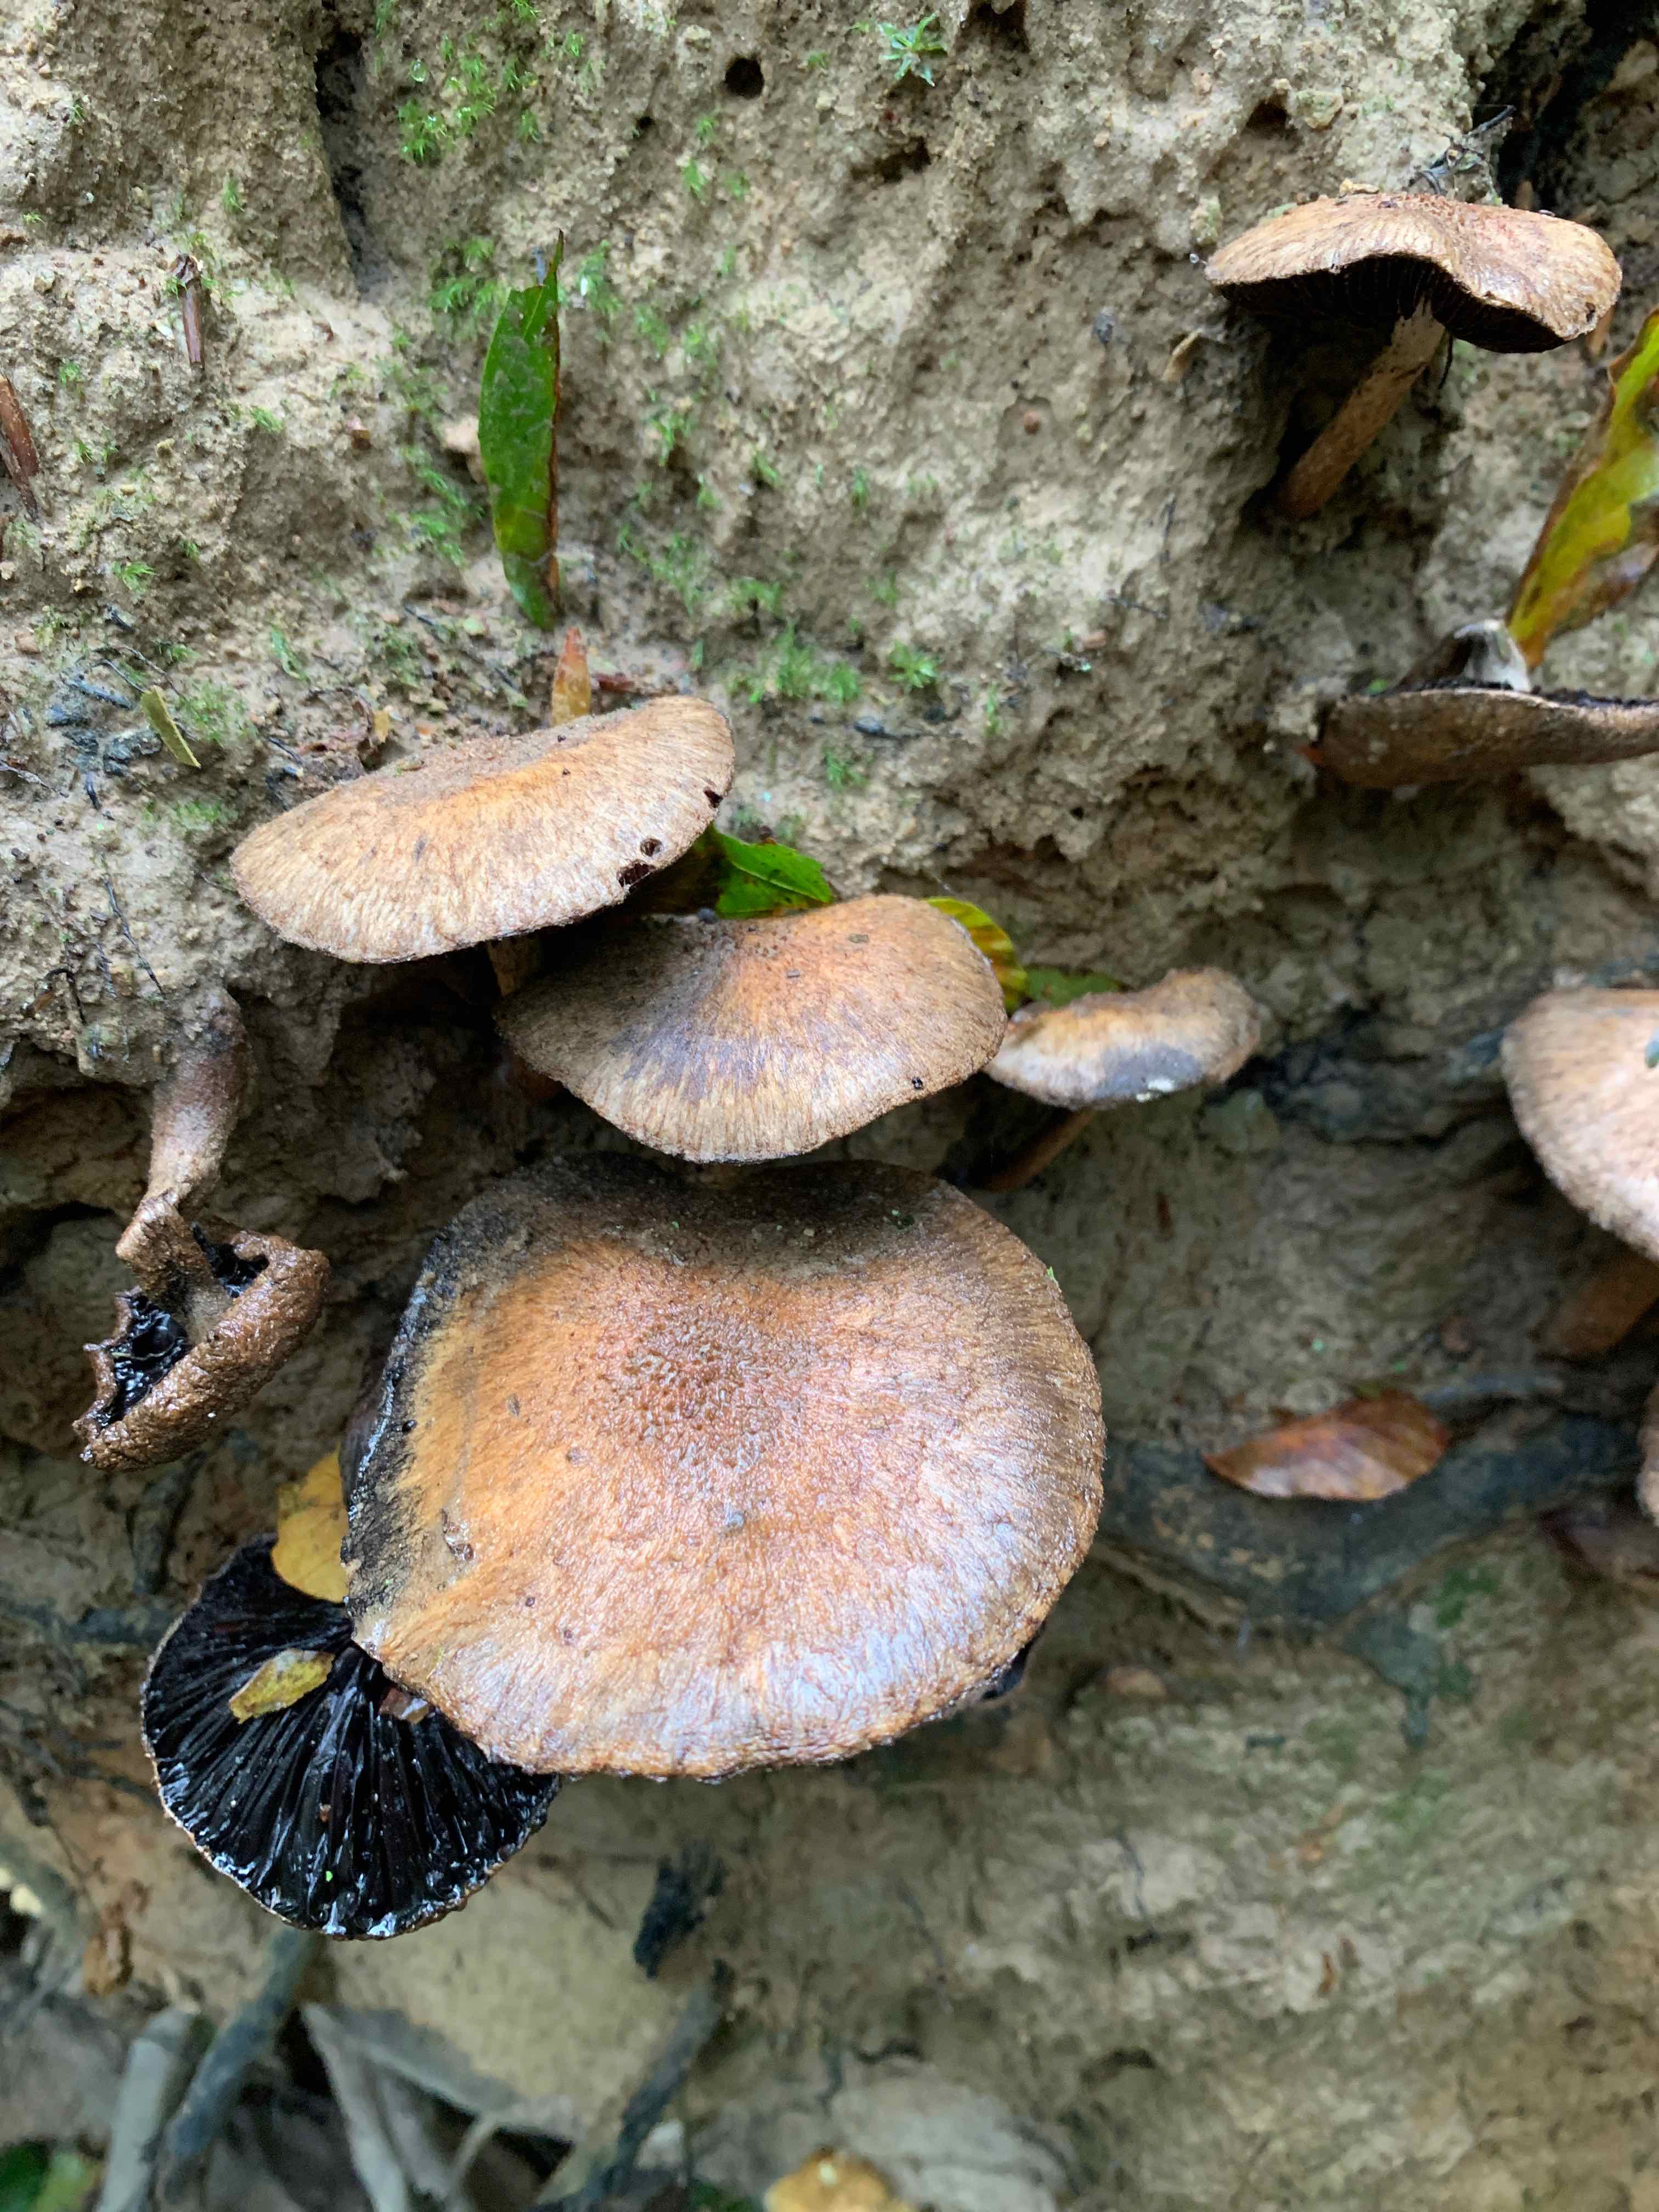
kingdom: Fungi
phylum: Basidiomycota
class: Agaricomycetes
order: Agaricales
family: Psathyrellaceae
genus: Lacrymaria
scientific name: Lacrymaria lacrymabunda
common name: grædende mørkhat
